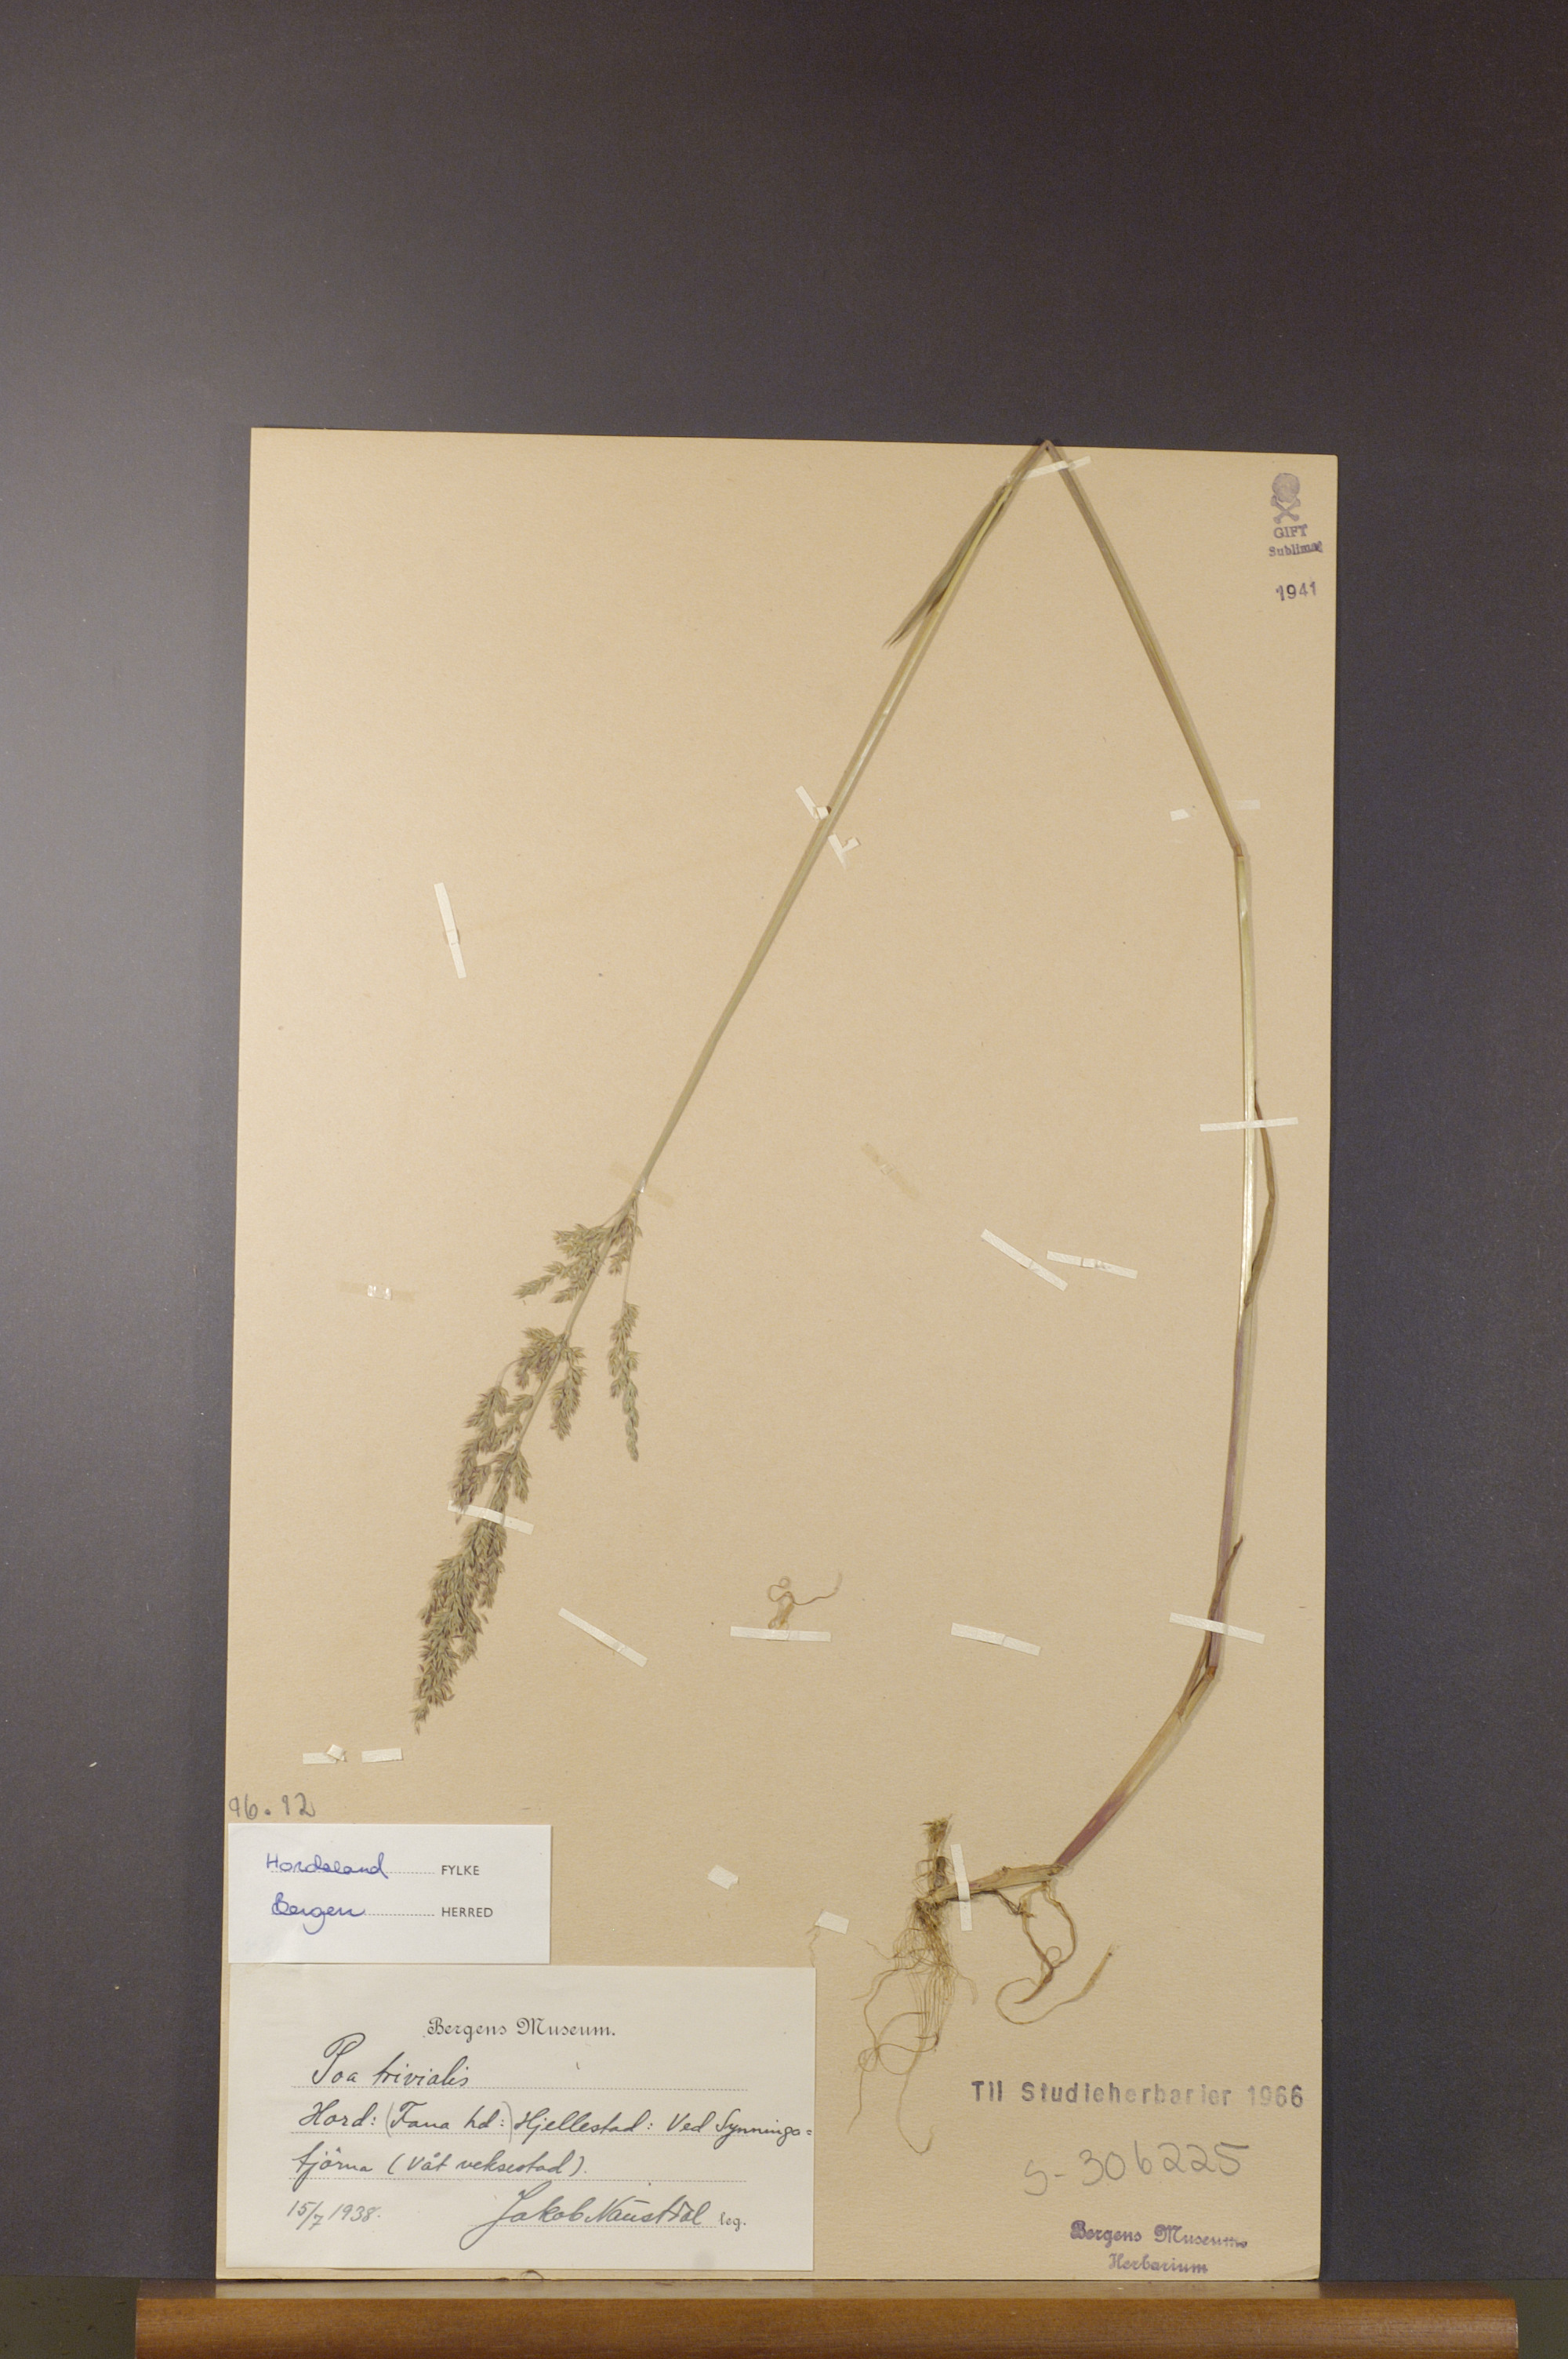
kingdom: Plantae
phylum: Tracheophyta
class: Liliopsida
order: Poales
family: Poaceae
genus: Poa
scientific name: Poa trivialis
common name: Rough bluegrass
